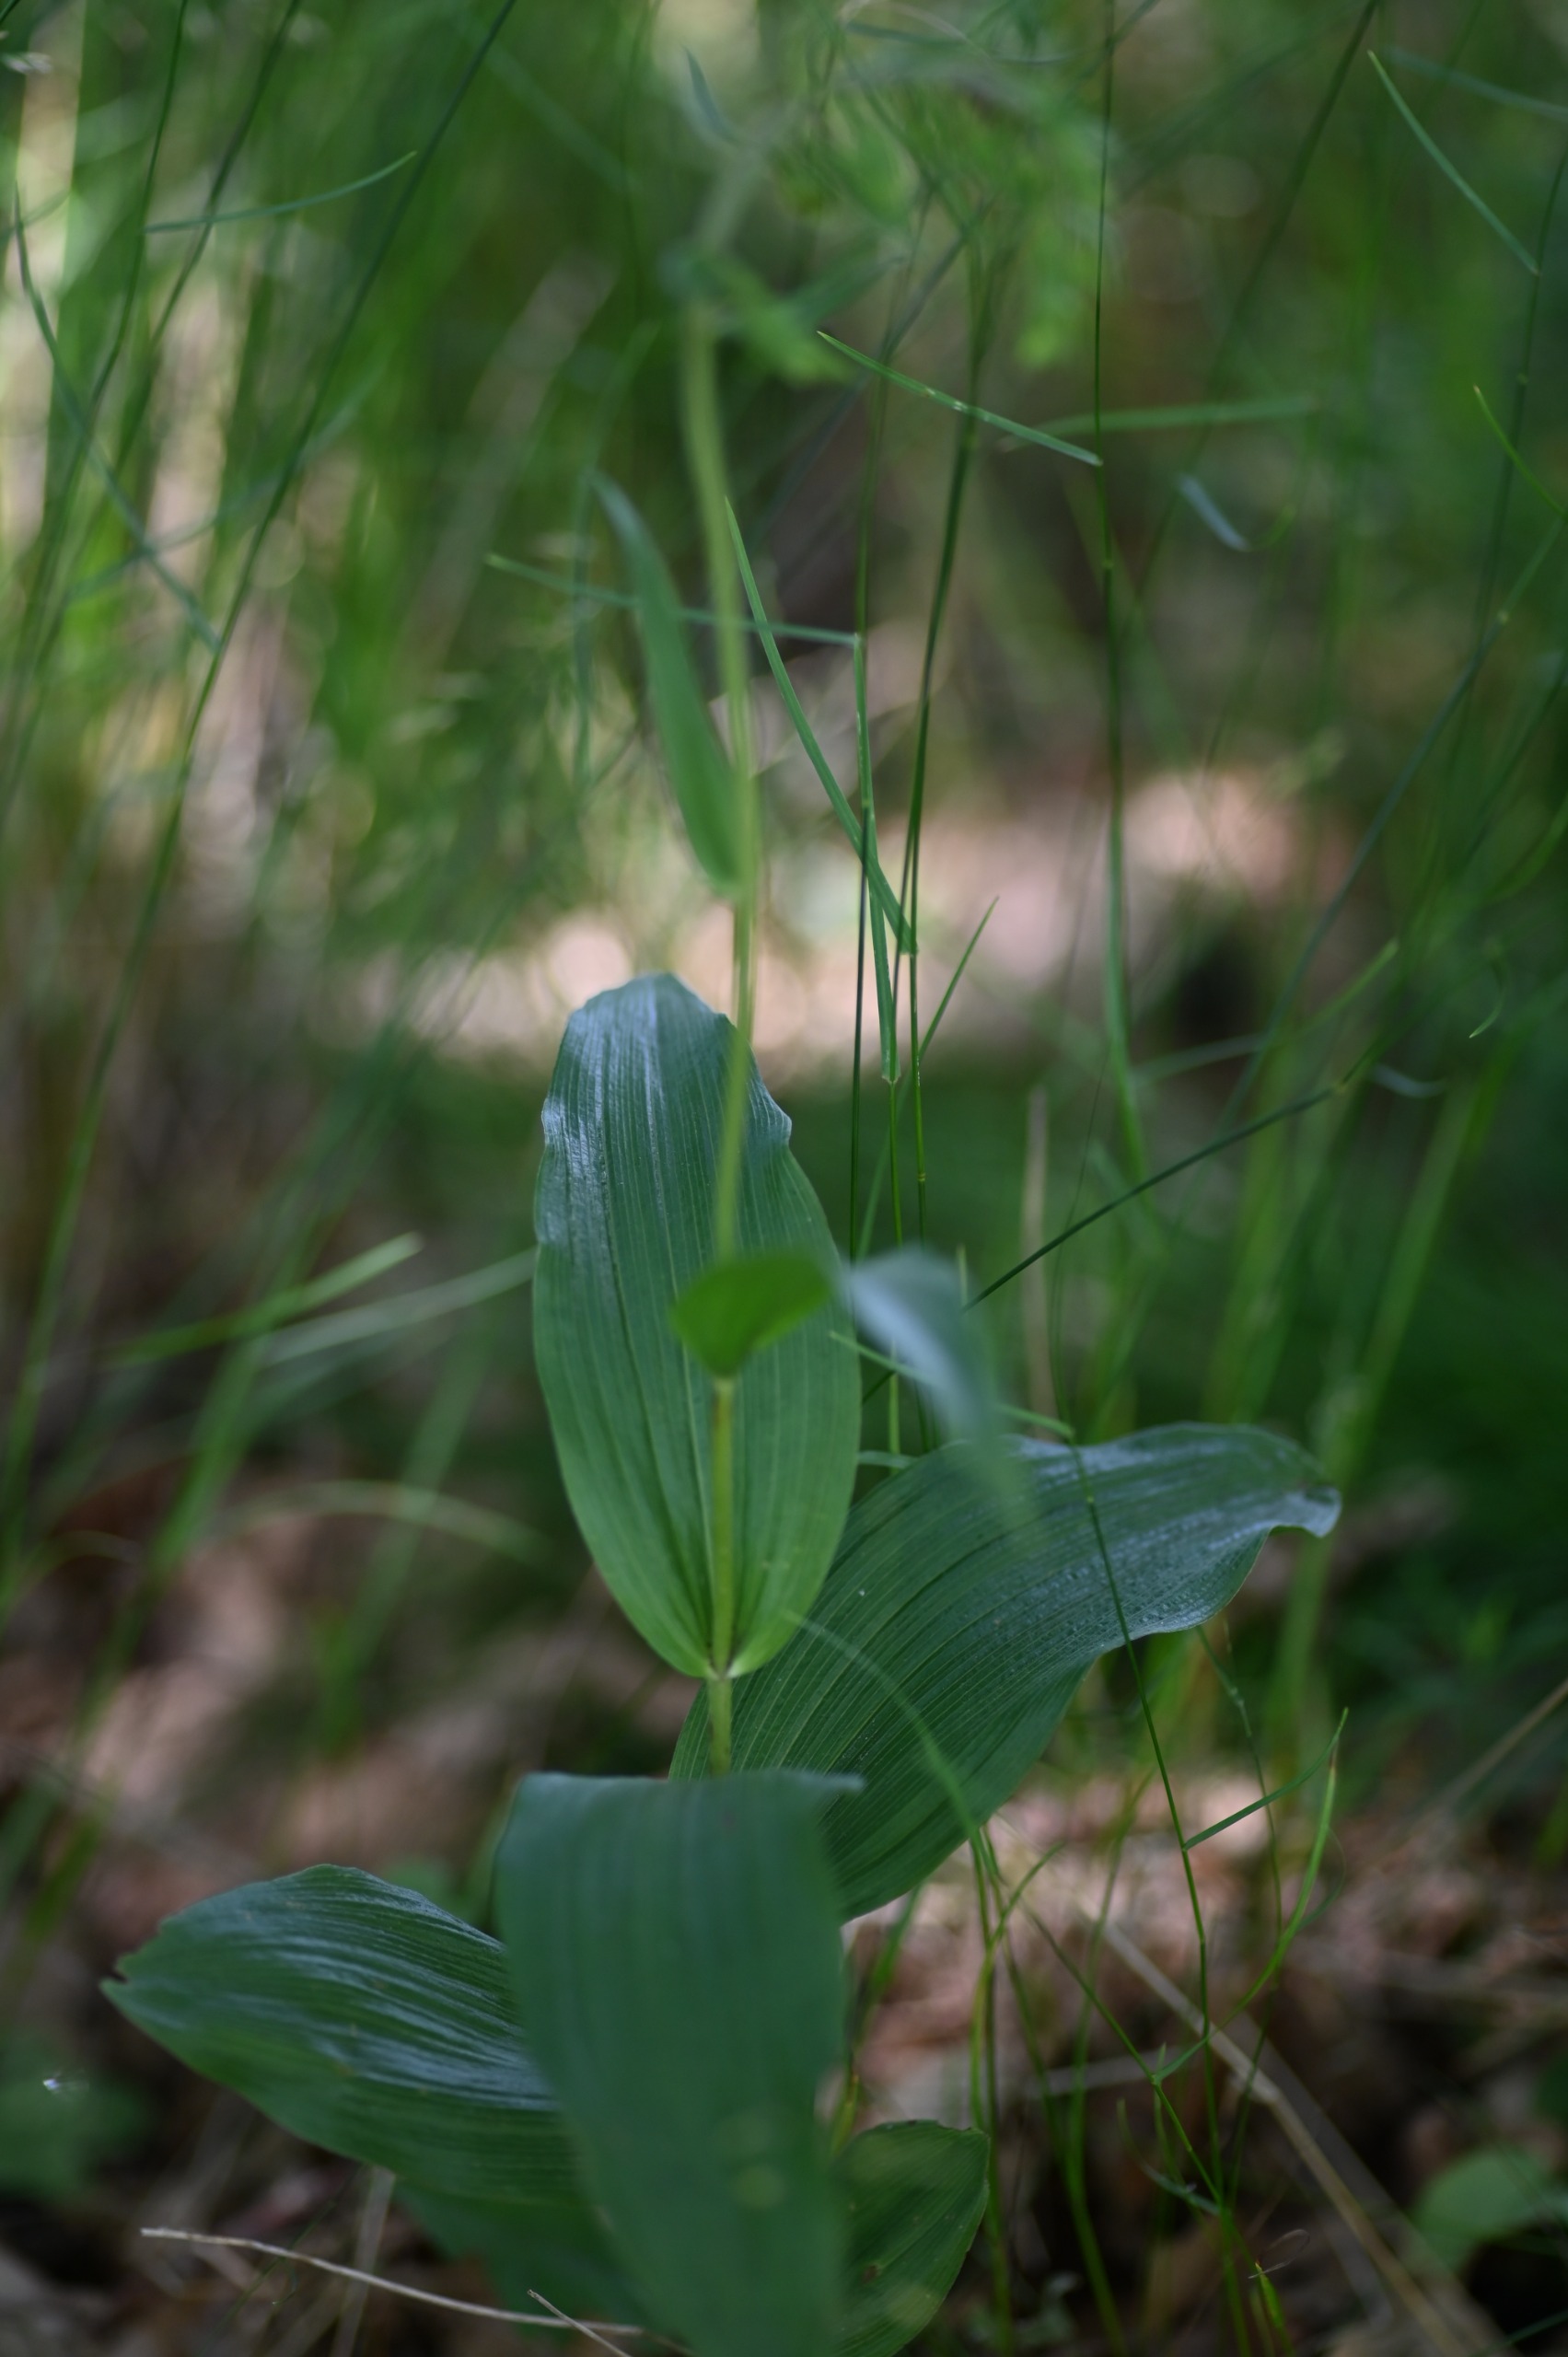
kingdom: Plantae
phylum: Tracheophyta
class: Liliopsida
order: Asparagales
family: Orchidaceae
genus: Epipactis
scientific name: Epipactis helleborine
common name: Skov-hullæbe
